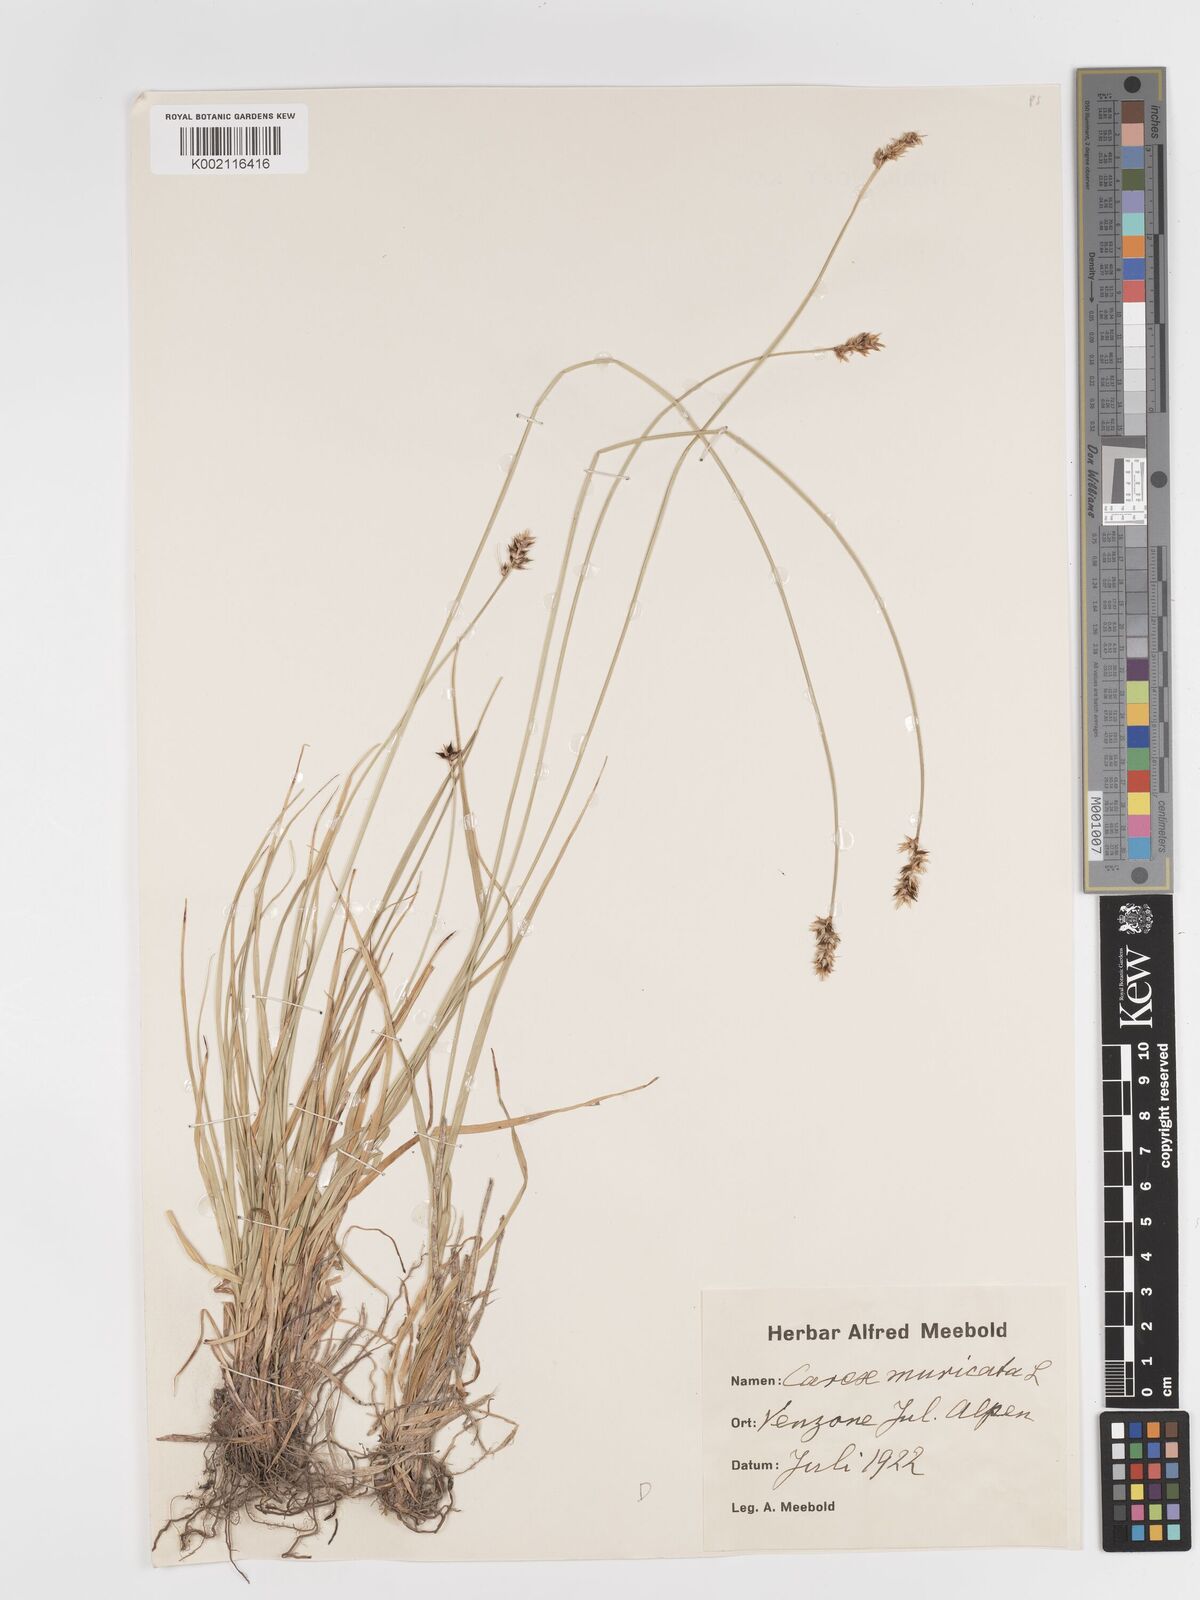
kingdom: Plantae
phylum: Tracheophyta
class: Liliopsida
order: Poales
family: Cyperaceae
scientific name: Cyperaceae
